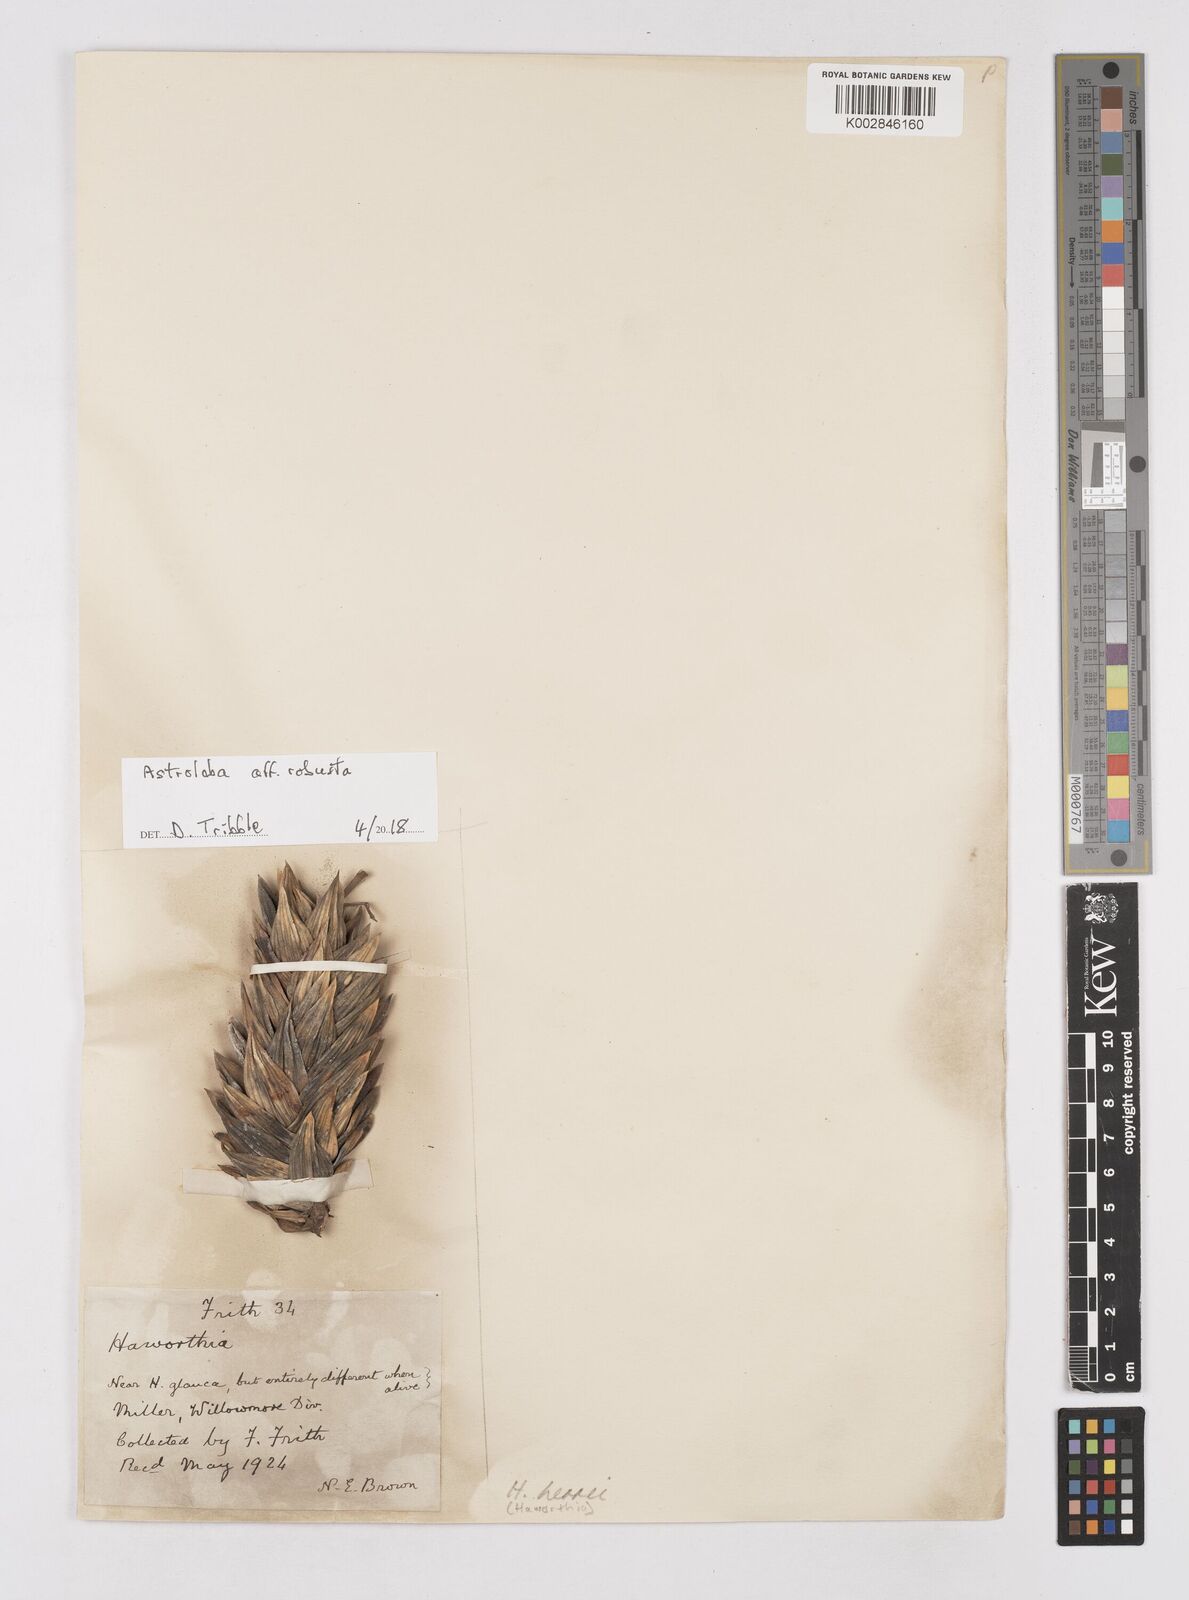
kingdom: Plantae
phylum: Tracheophyta
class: Liliopsida
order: Asparagales
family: Asphodelaceae
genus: Astroloba
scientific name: Astroloba robusta
